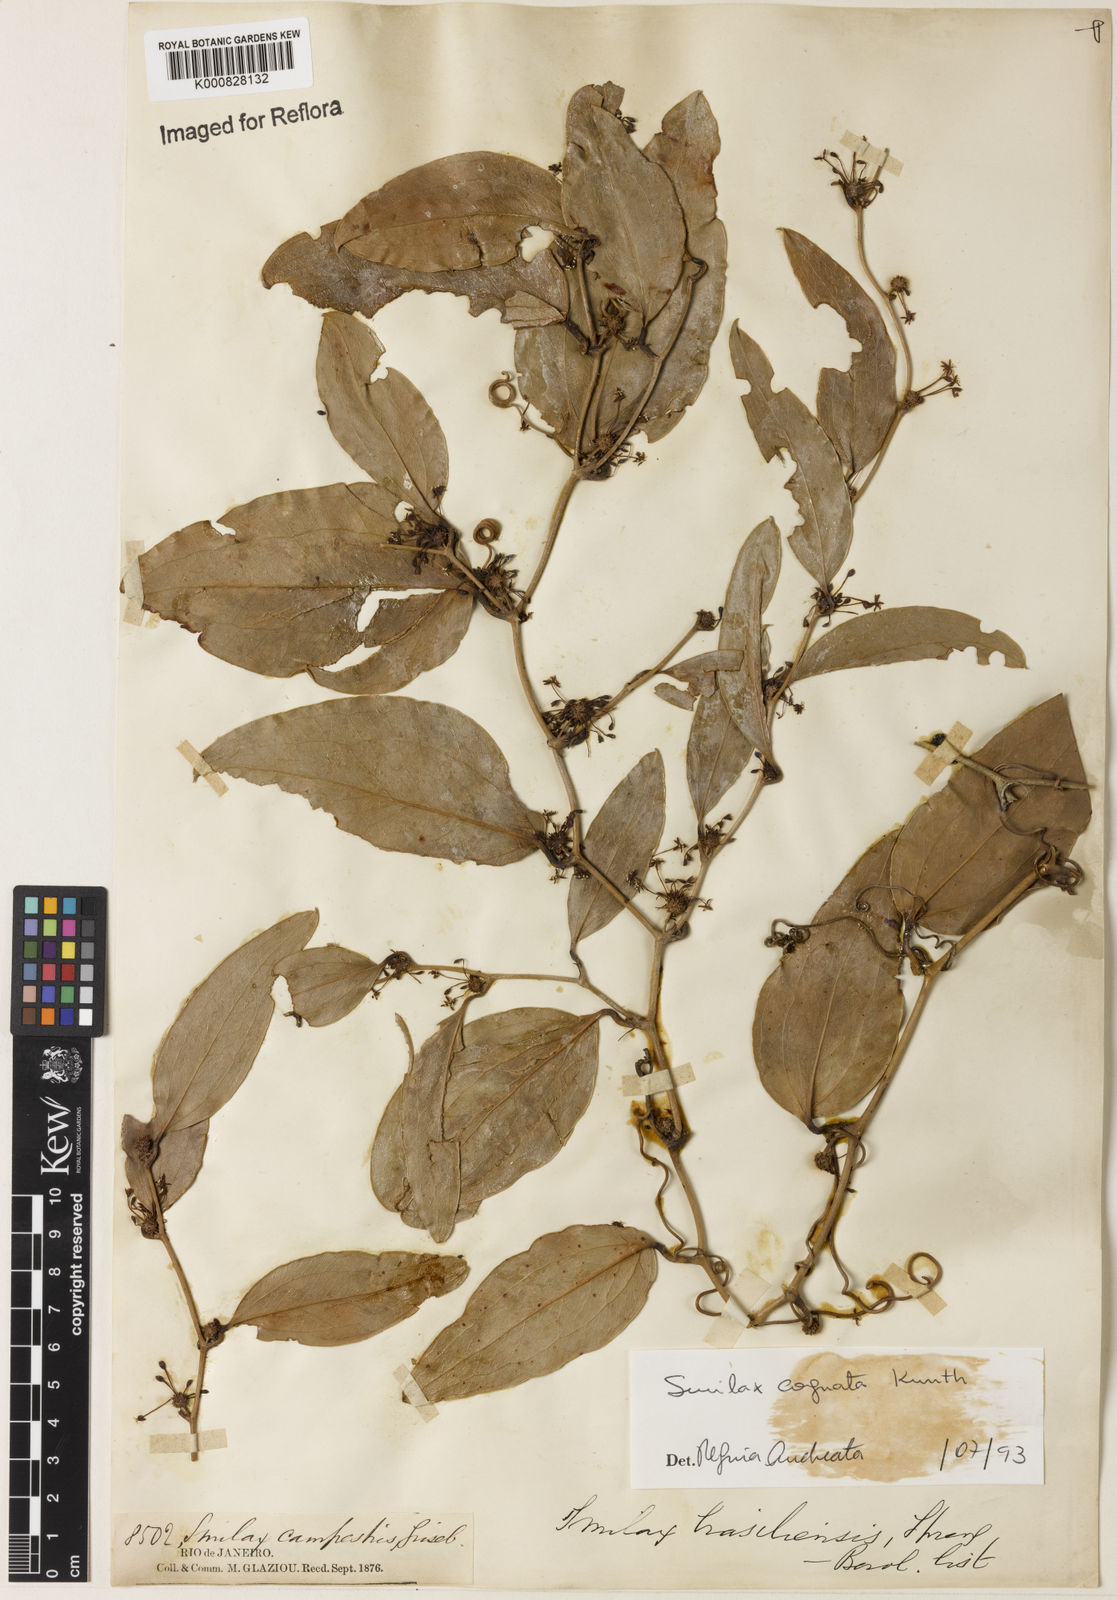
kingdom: Plantae
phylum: Tracheophyta
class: Liliopsida
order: Liliales
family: Smilacaceae
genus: Smilax
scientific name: Smilax cognata
